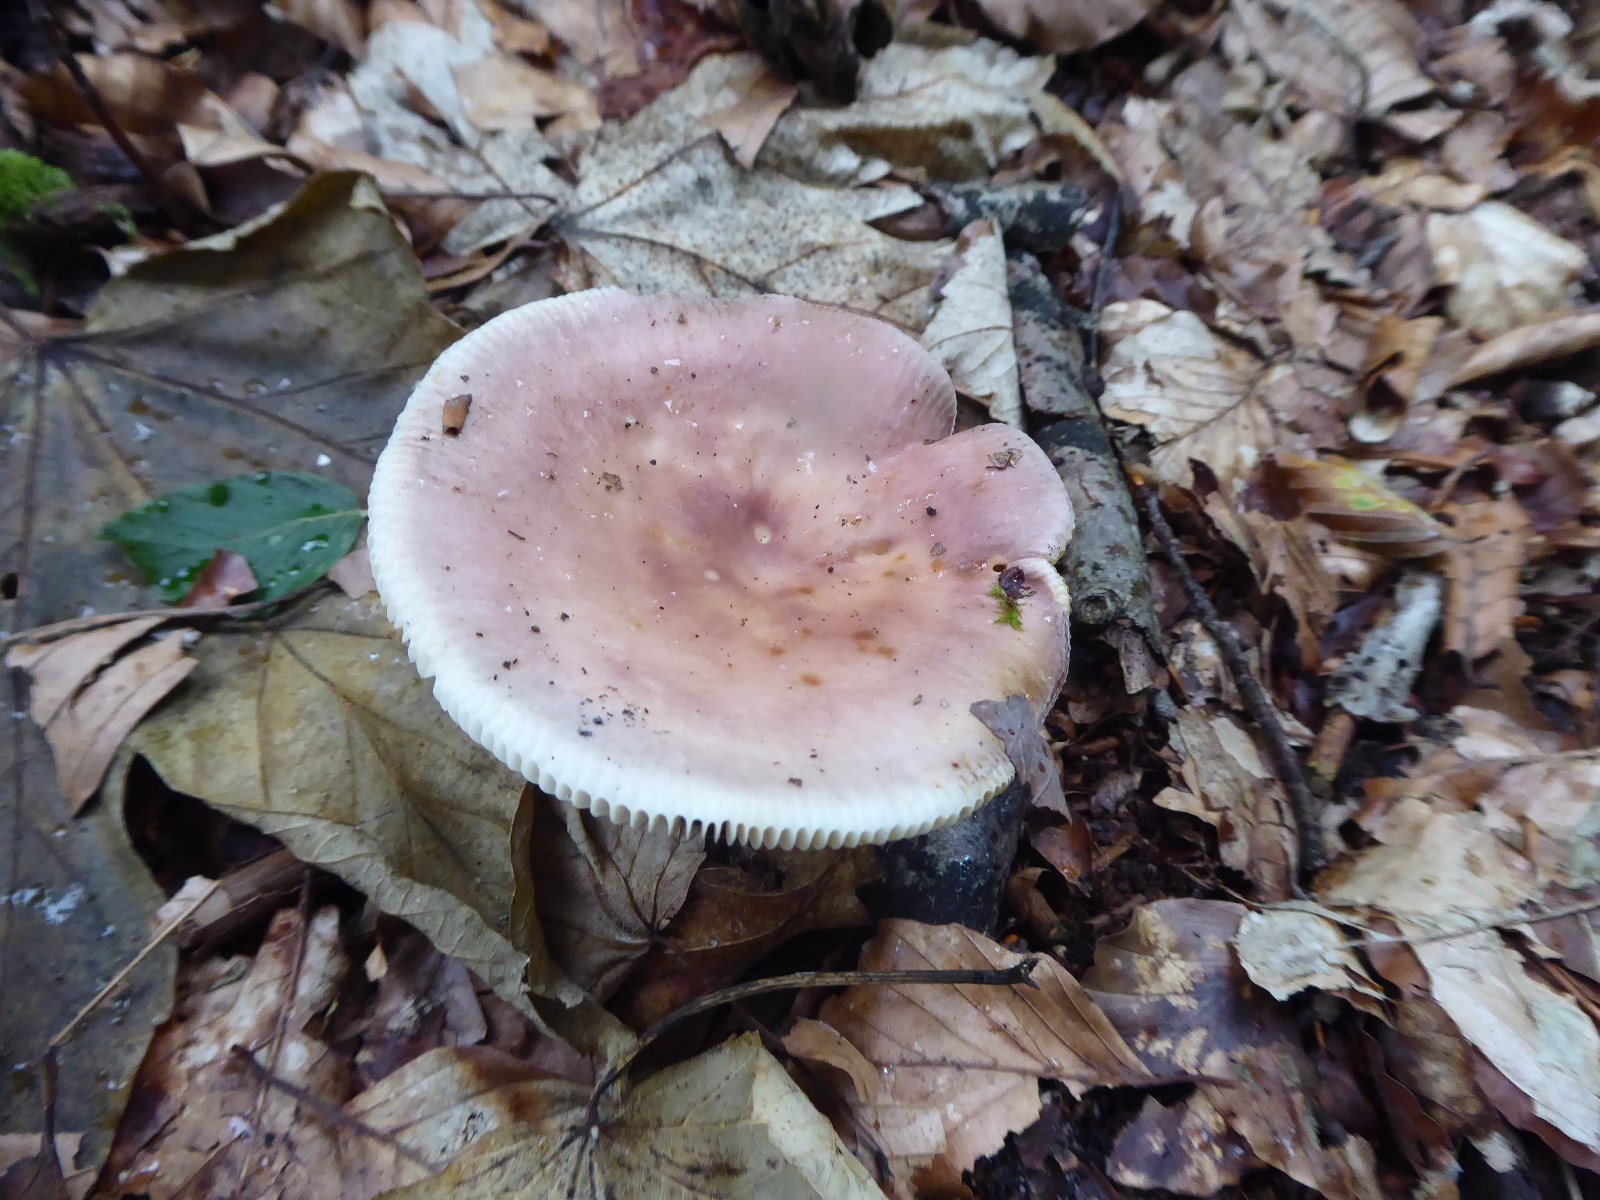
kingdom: Fungi
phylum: Basidiomycota
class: Agaricomycetes
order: Russulales
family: Russulaceae
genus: Russula
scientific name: Russula vesca
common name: spiselig skørhat
